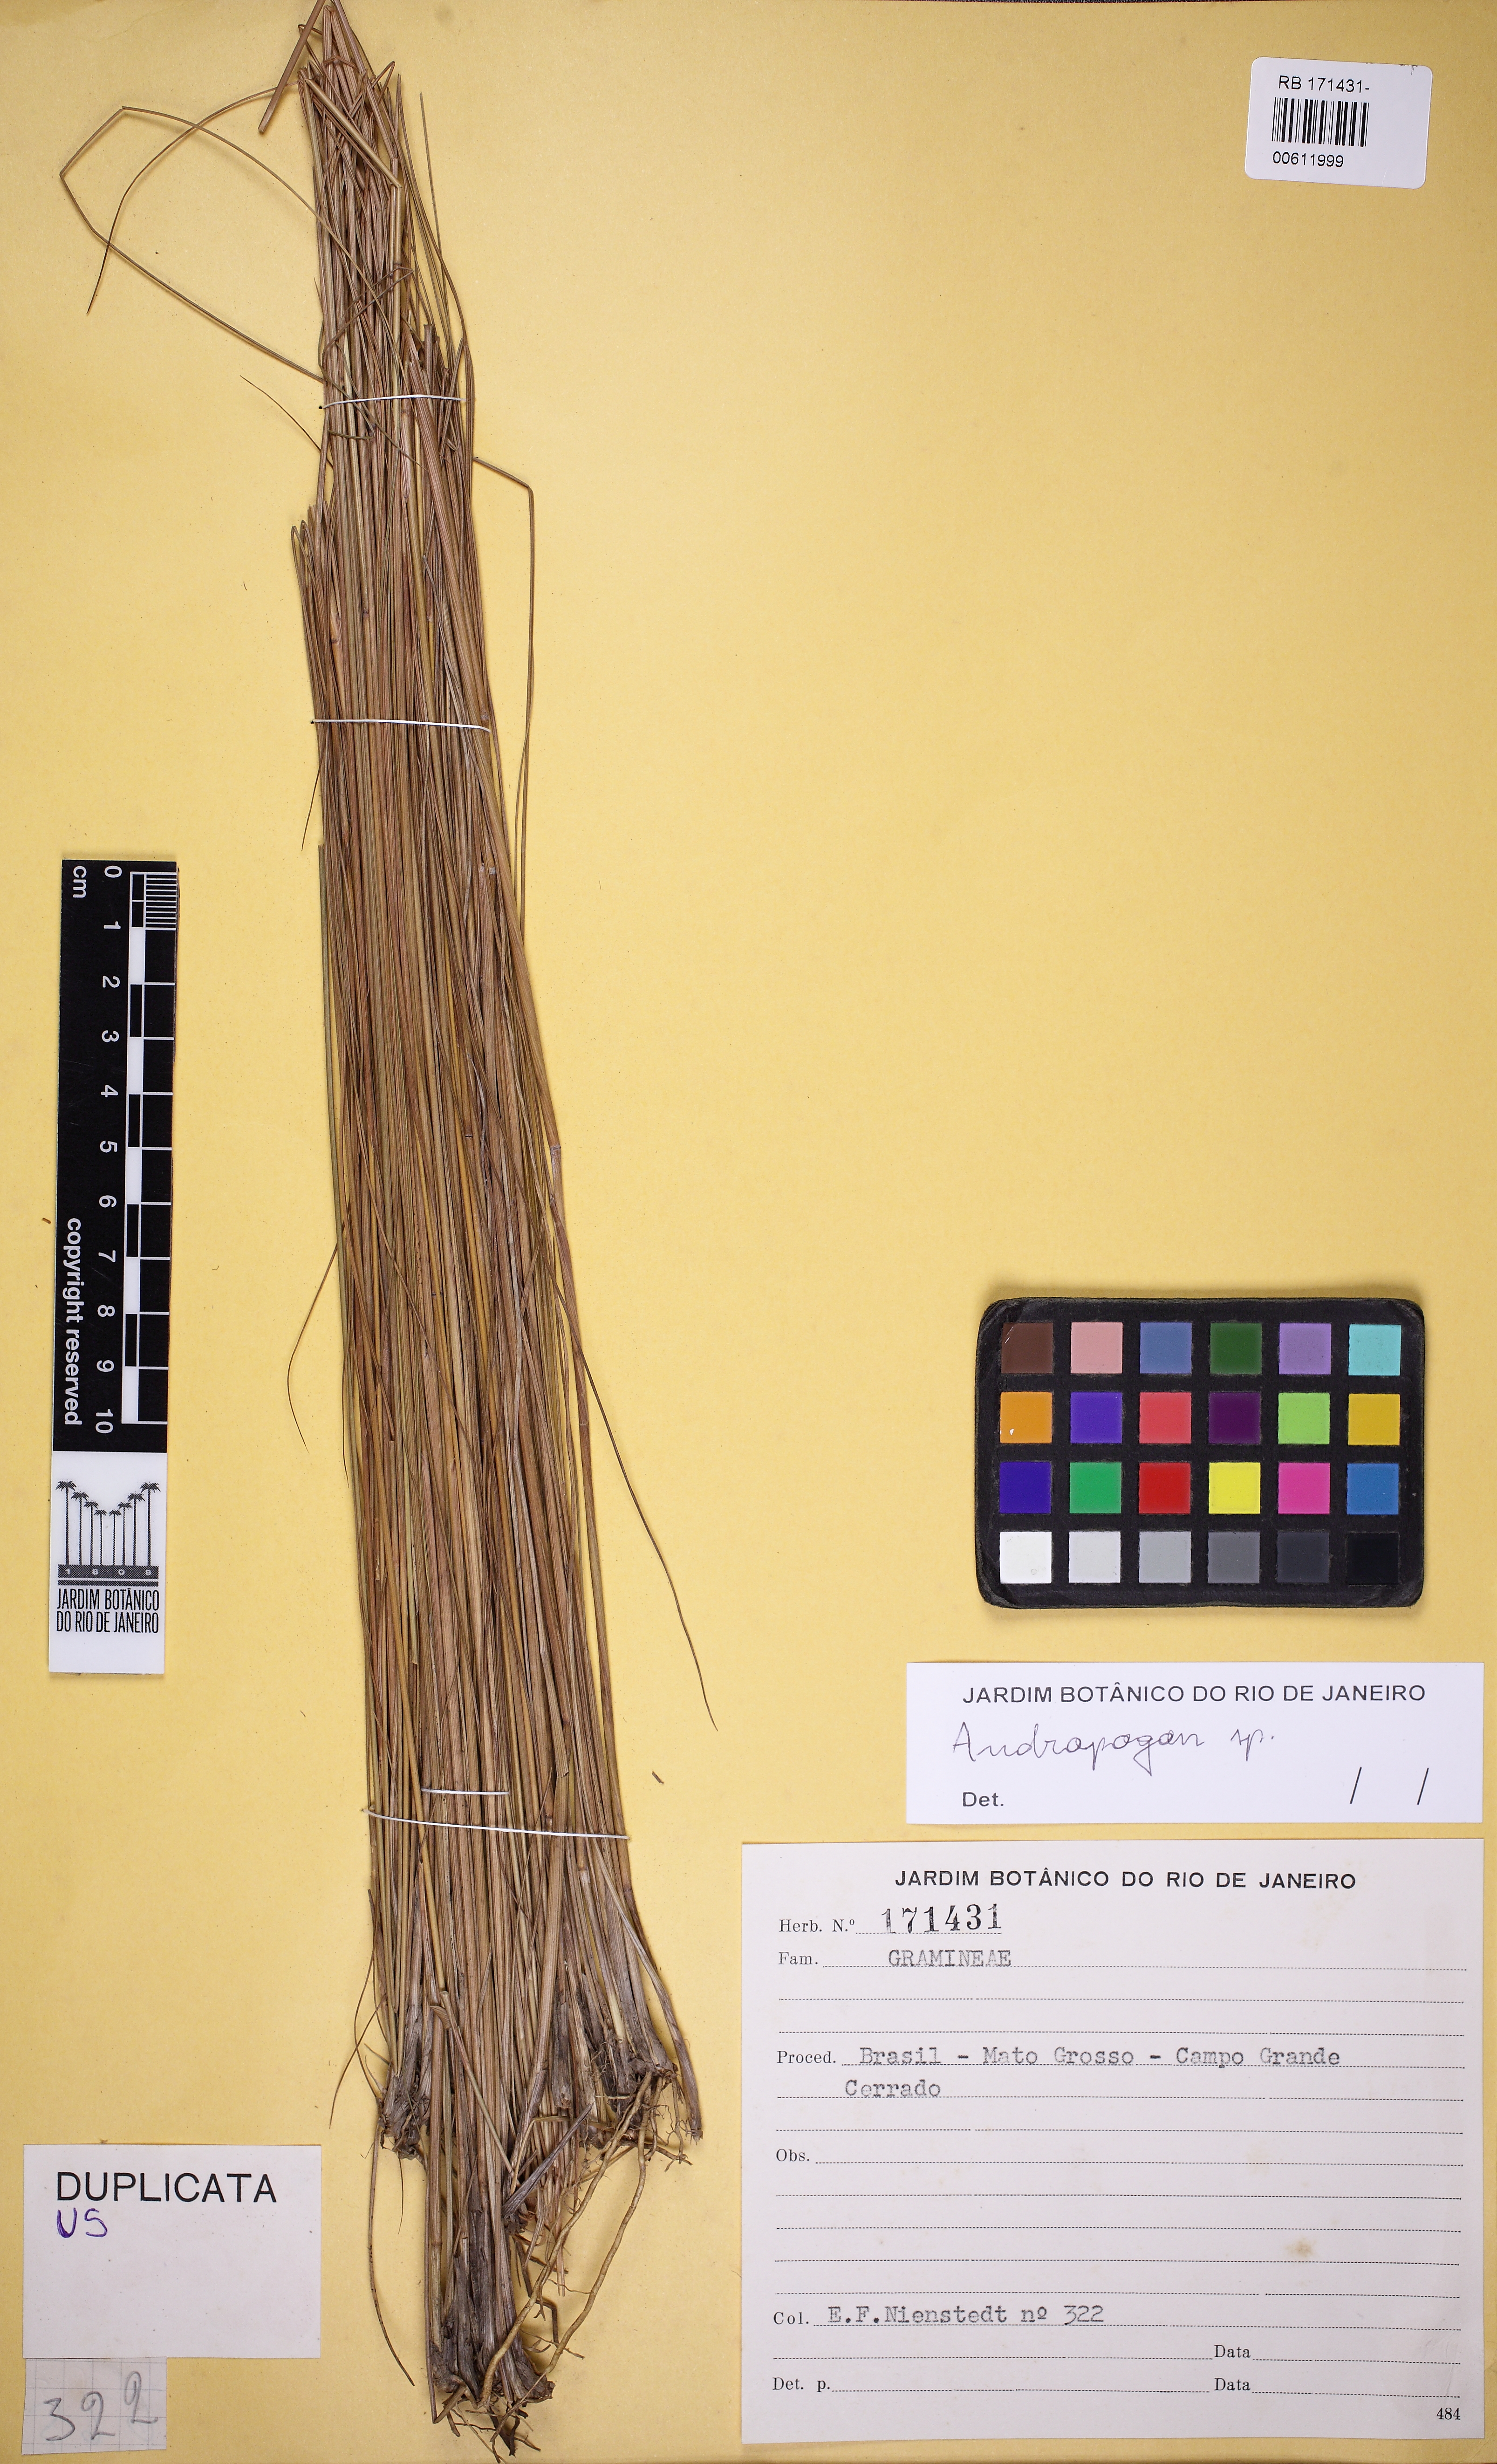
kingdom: Plantae
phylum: Tracheophyta
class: Liliopsida
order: Poales
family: Poaceae
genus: Andropogon
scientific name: Andropogon
